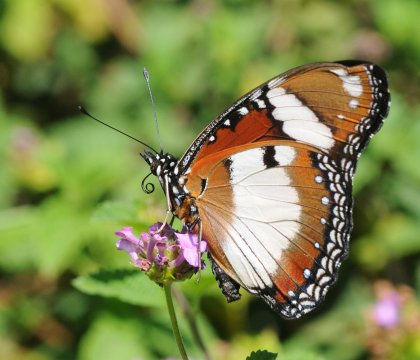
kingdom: Animalia
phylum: Arthropoda
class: Insecta
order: Lepidoptera
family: Nymphalidae
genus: Hypolimnas
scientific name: Hypolimnas misippus
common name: Mimic
